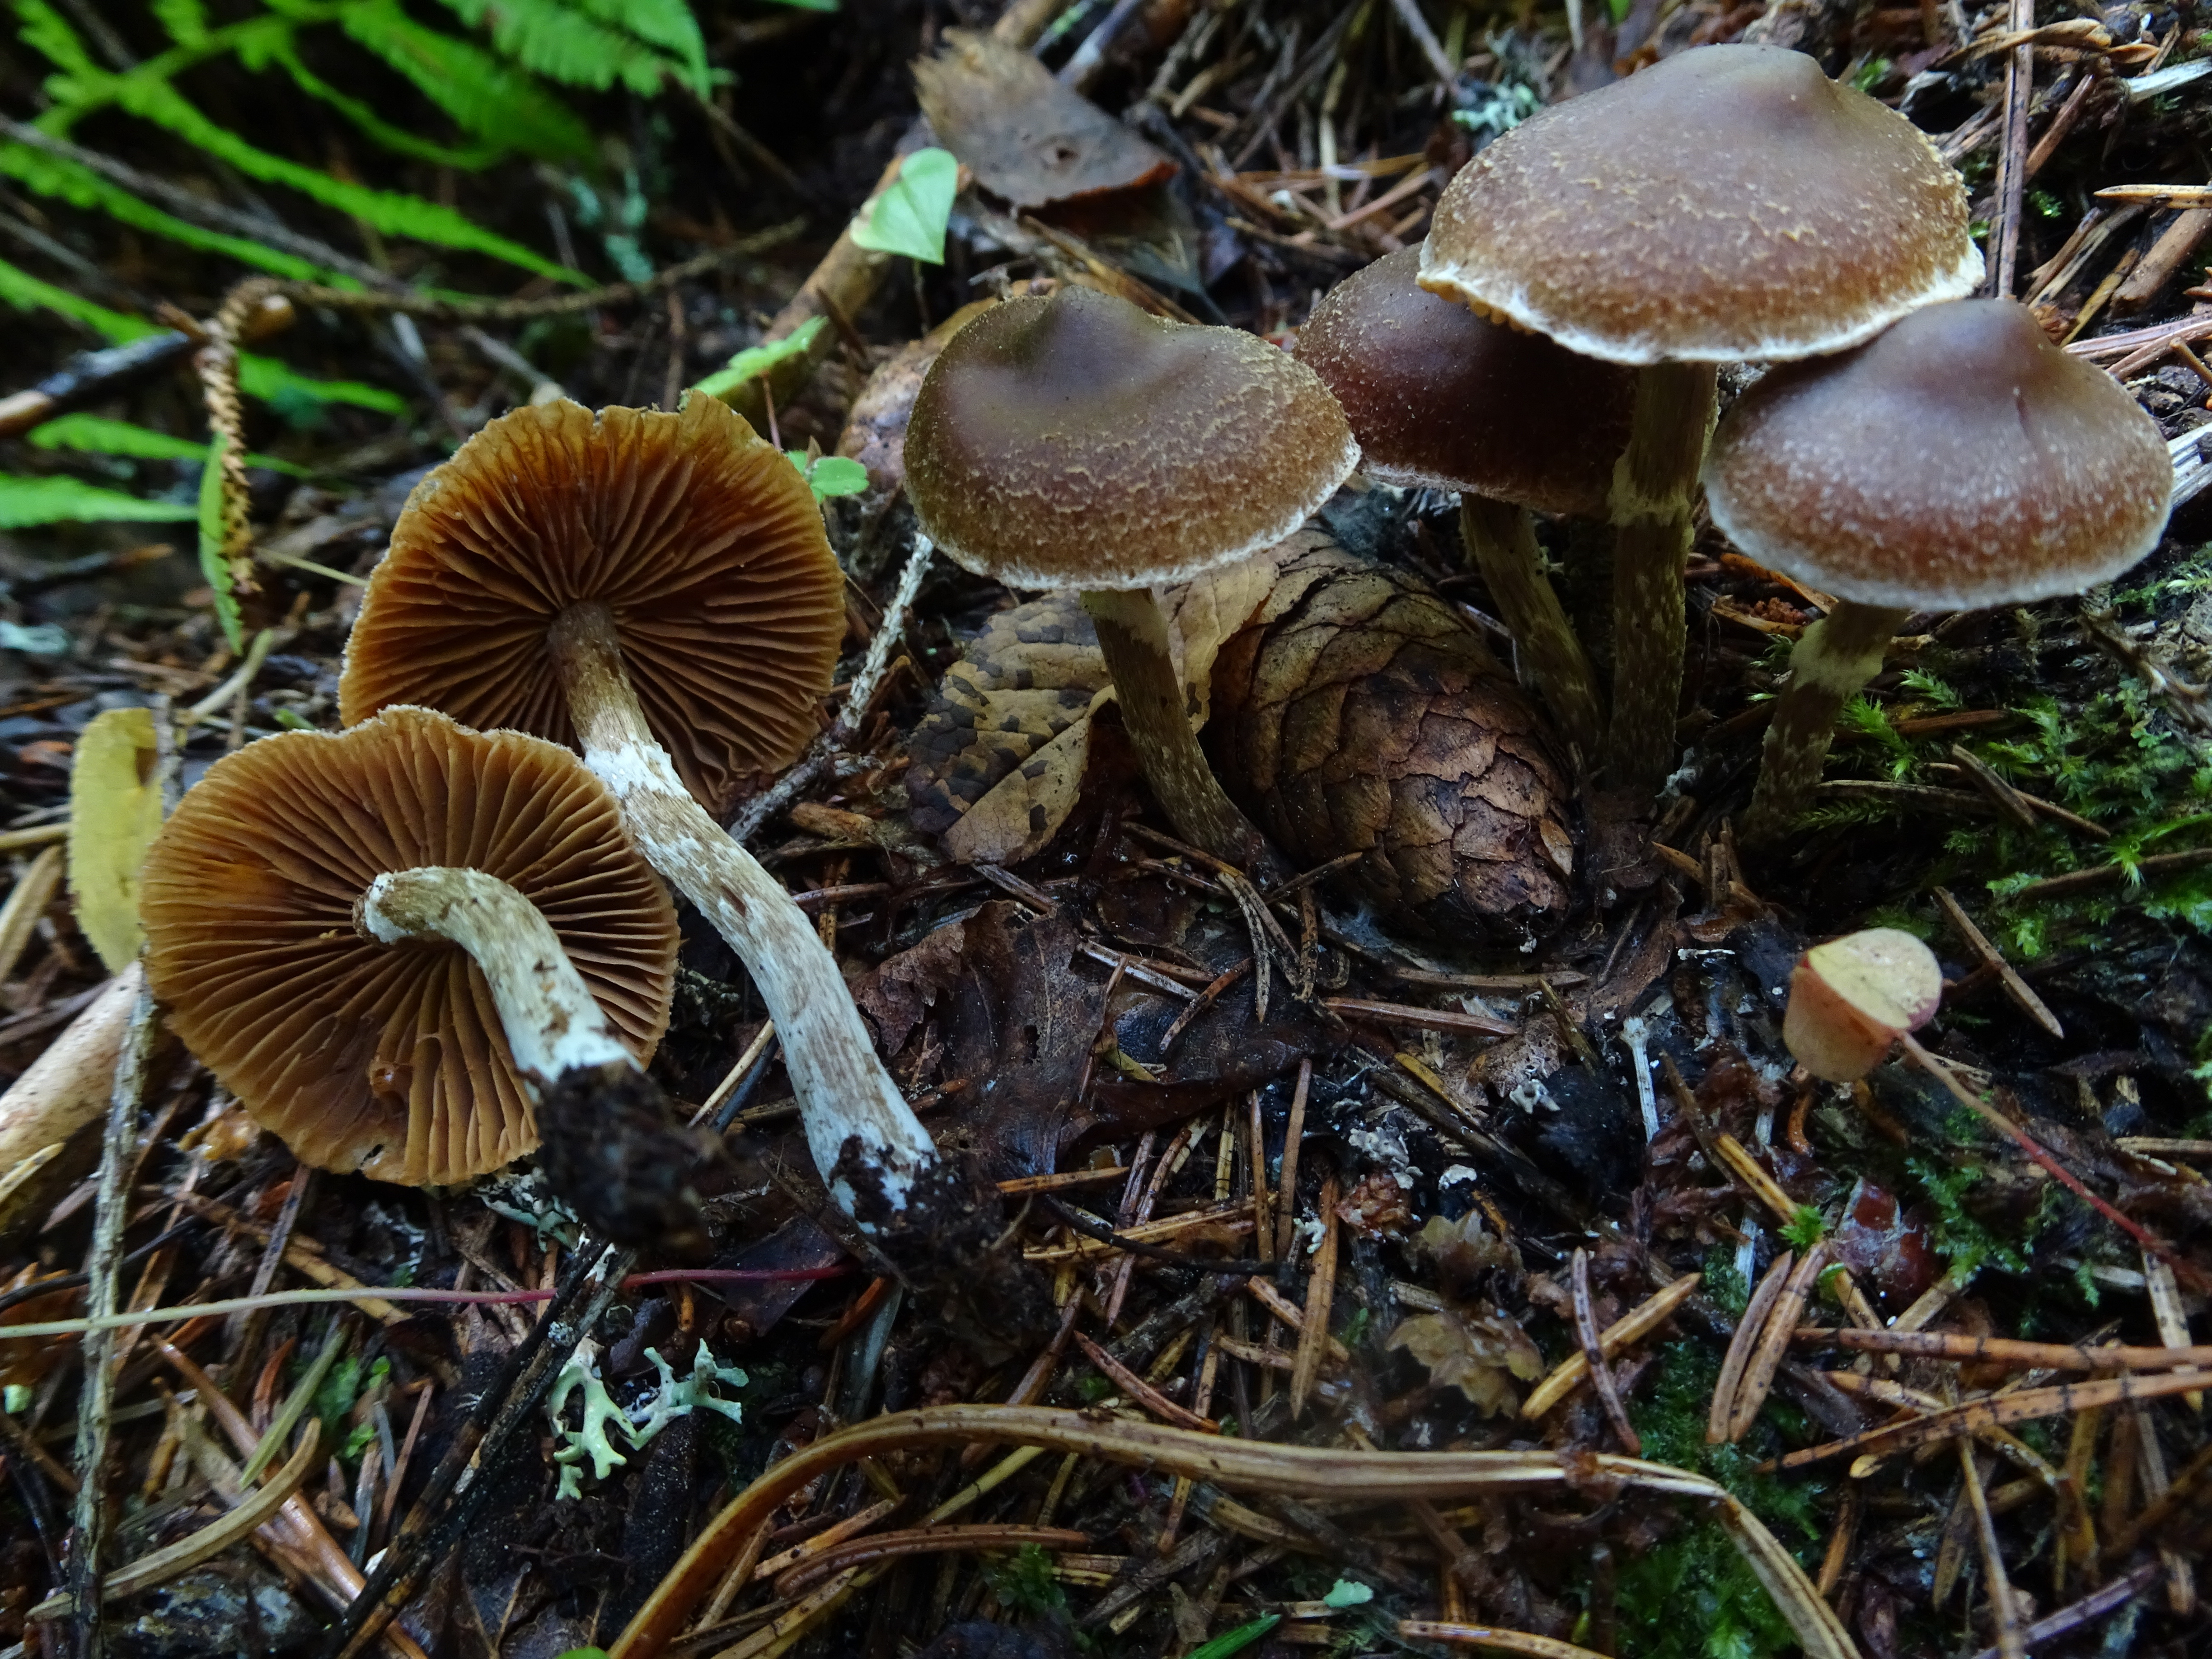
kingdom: Fungi
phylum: Basidiomycota
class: Agaricomycetes
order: Agaricales
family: Cortinariaceae
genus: Cortinarius
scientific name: Cortinarius
